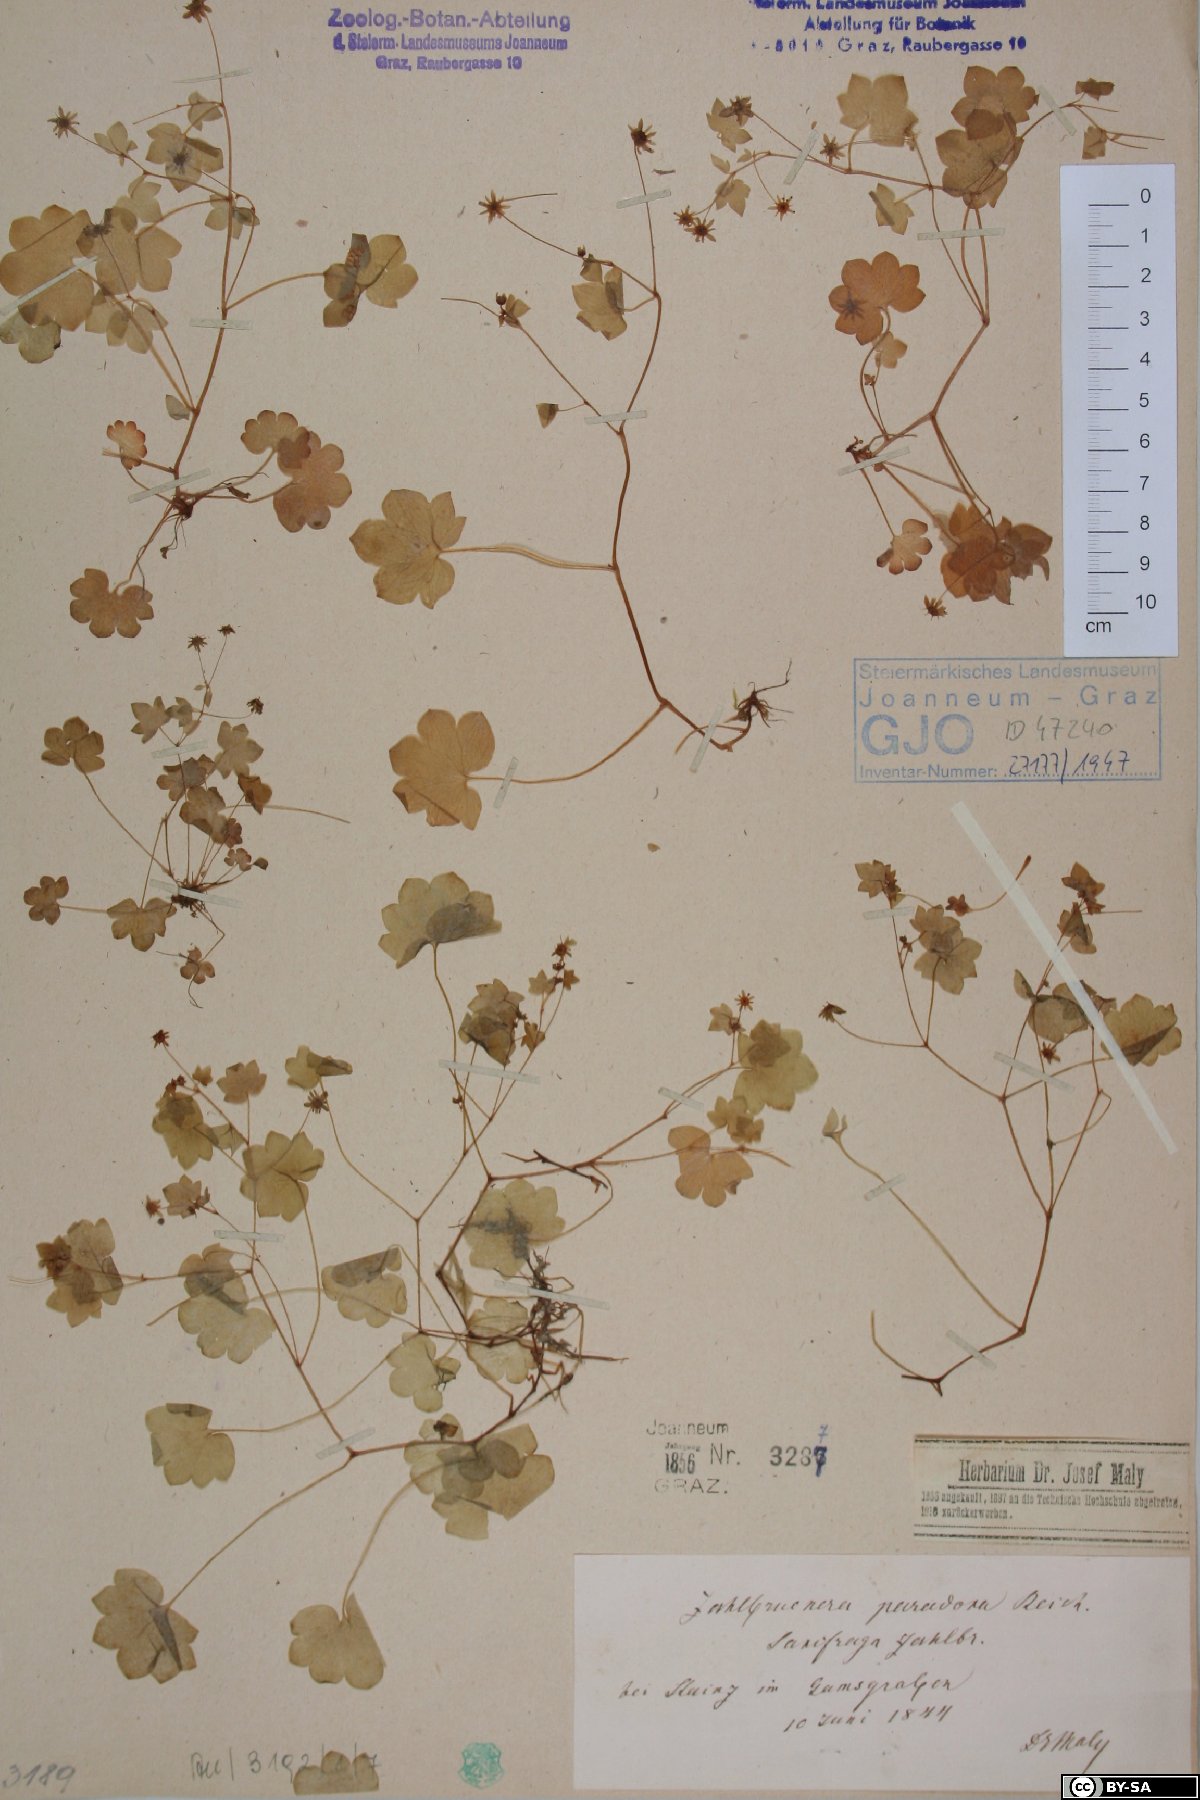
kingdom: Plantae
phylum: Tracheophyta
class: Magnoliopsida
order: Saxifragales
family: Saxifragaceae
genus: Saxifraga
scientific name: Saxifraga paradoxa
